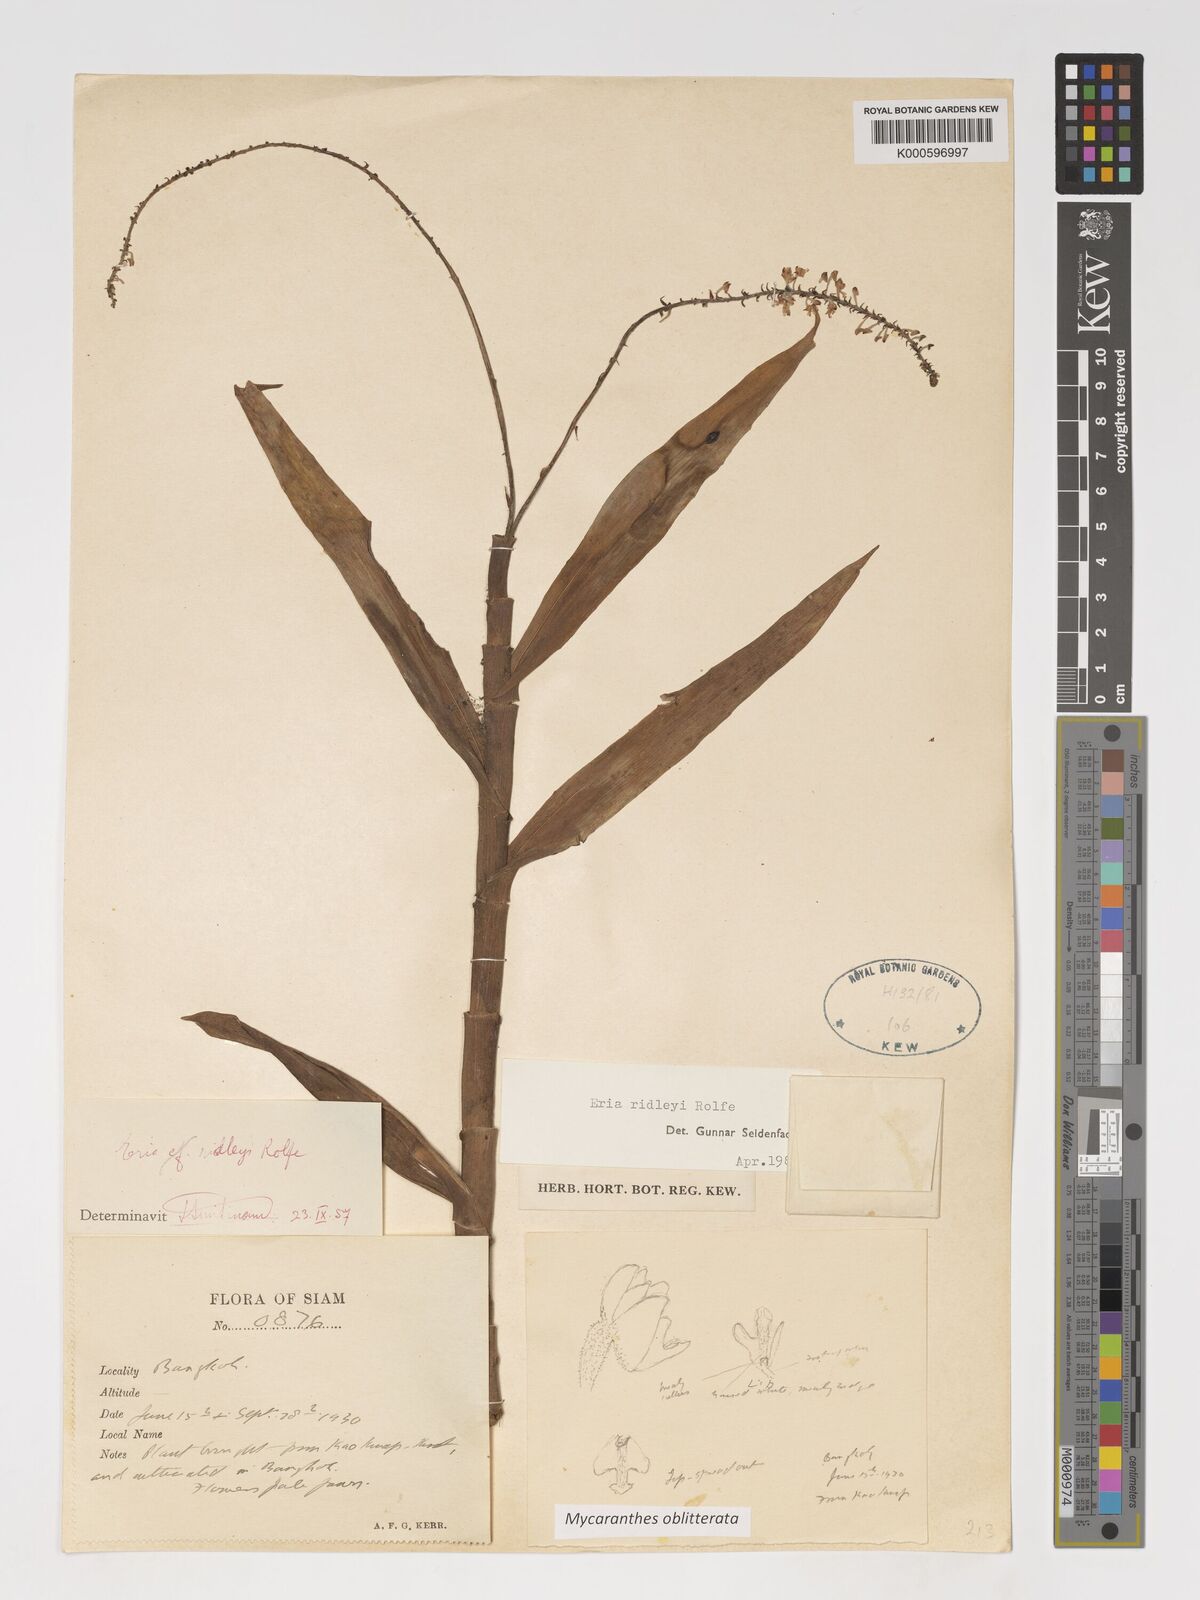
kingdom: Plantae
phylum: Tracheophyta
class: Liliopsida
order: Asparagales
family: Orchidaceae
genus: Mycaranthes
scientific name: Mycaranthes oblitterata
